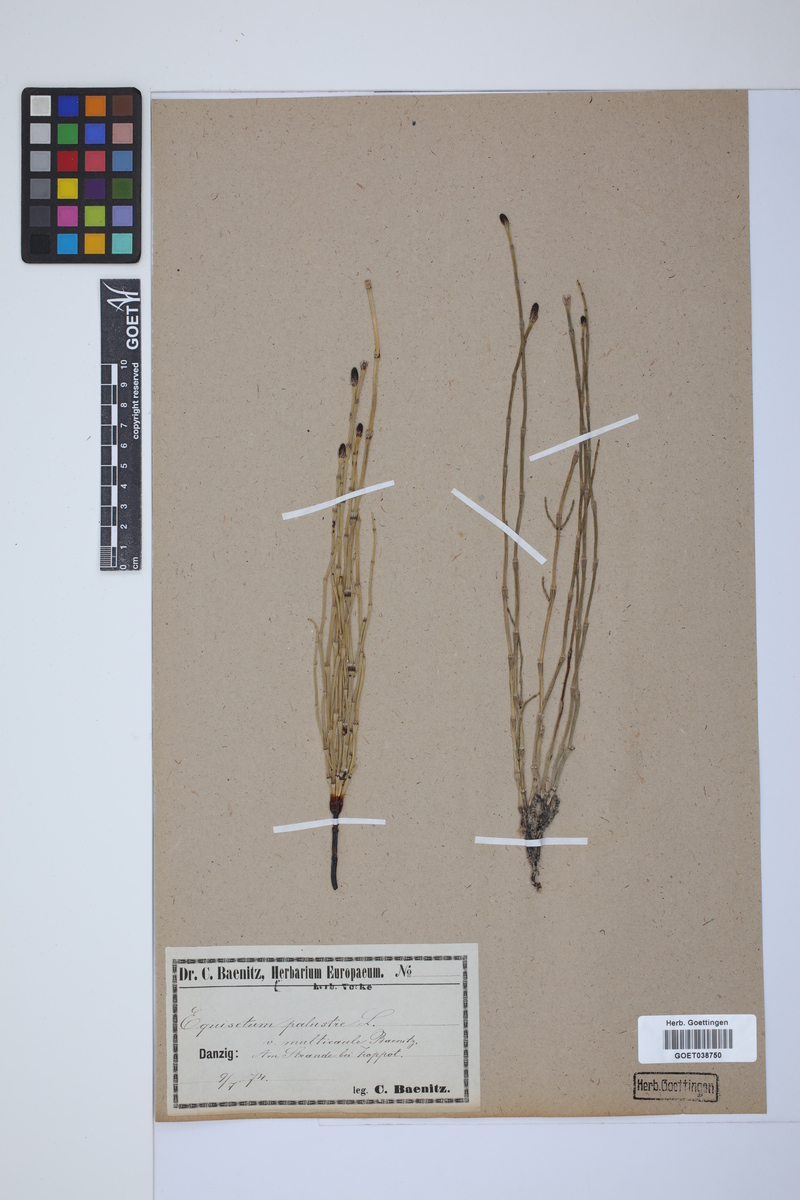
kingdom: Plantae
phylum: Tracheophyta
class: Polypodiopsida
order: Equisetales
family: Equisetaceae
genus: Equisetum
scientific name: Equisetum palustre
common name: Marsh horsetail
